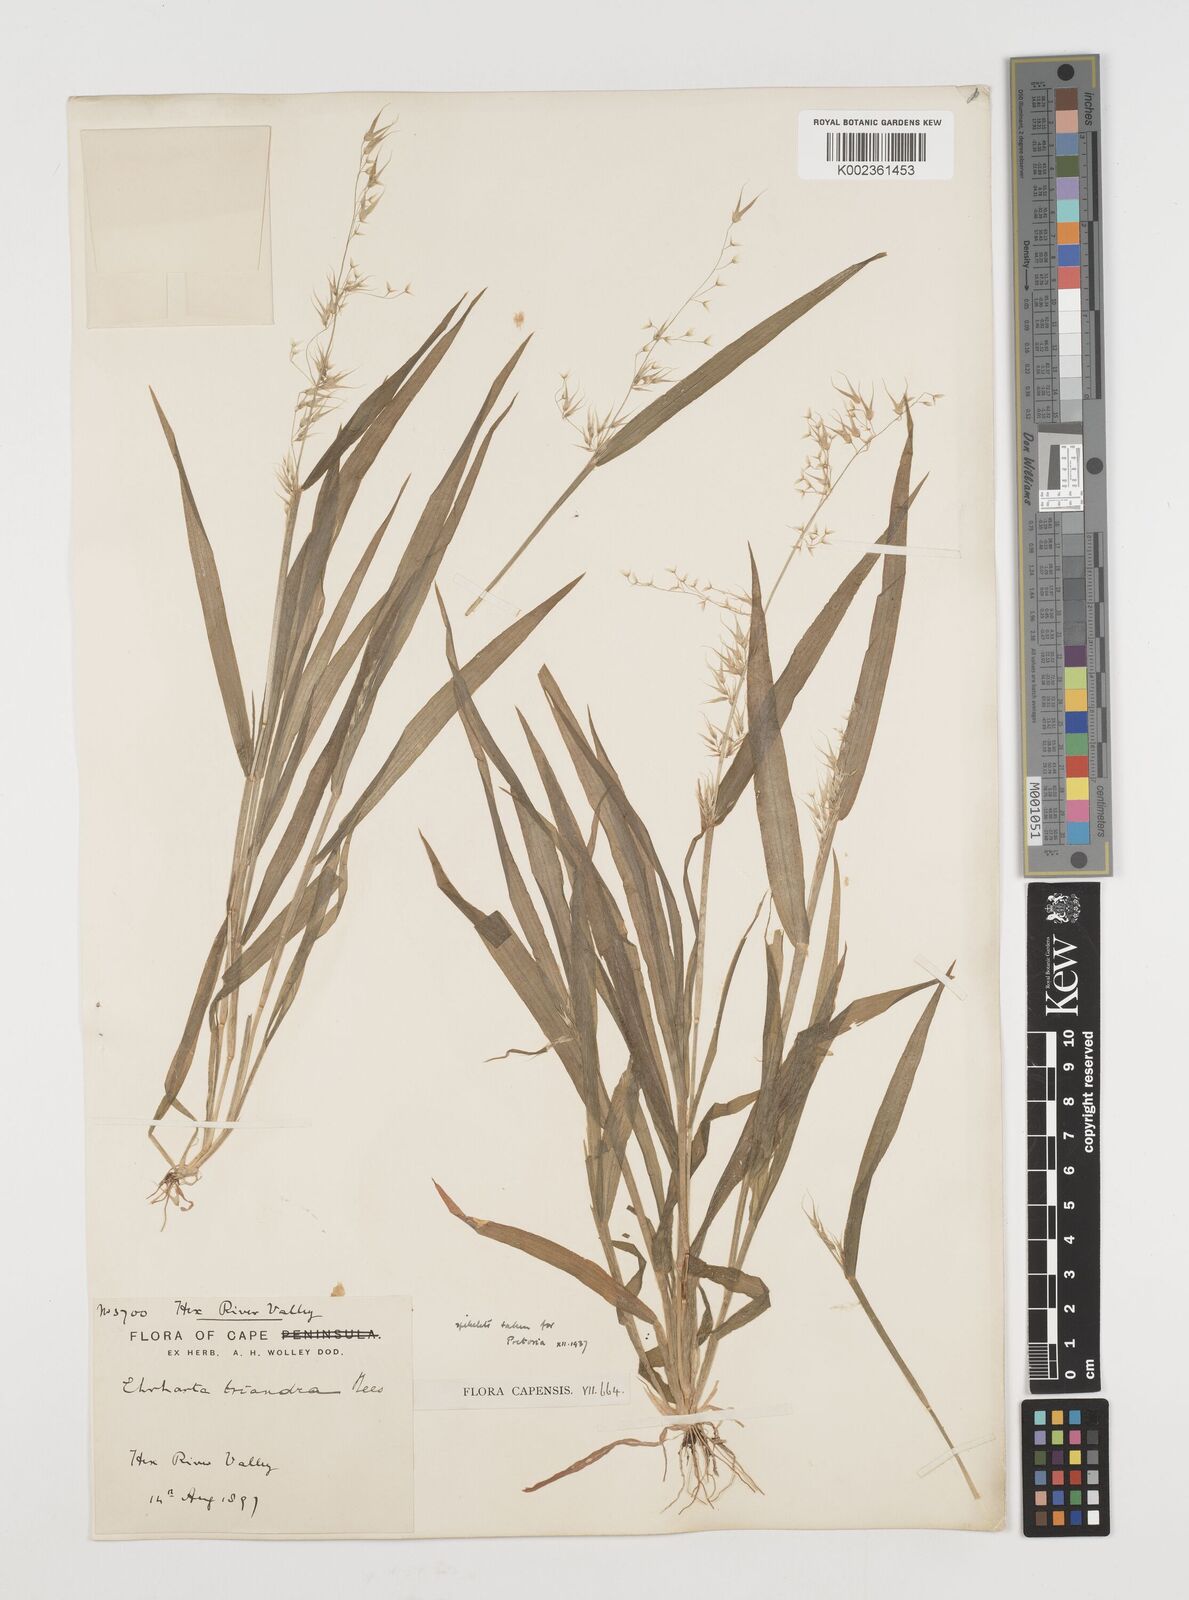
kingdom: Plantae
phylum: Tracheophyta
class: Liliopsida
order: Poales
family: Poaceae
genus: Ehrharta
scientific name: Ehrharta triandra
